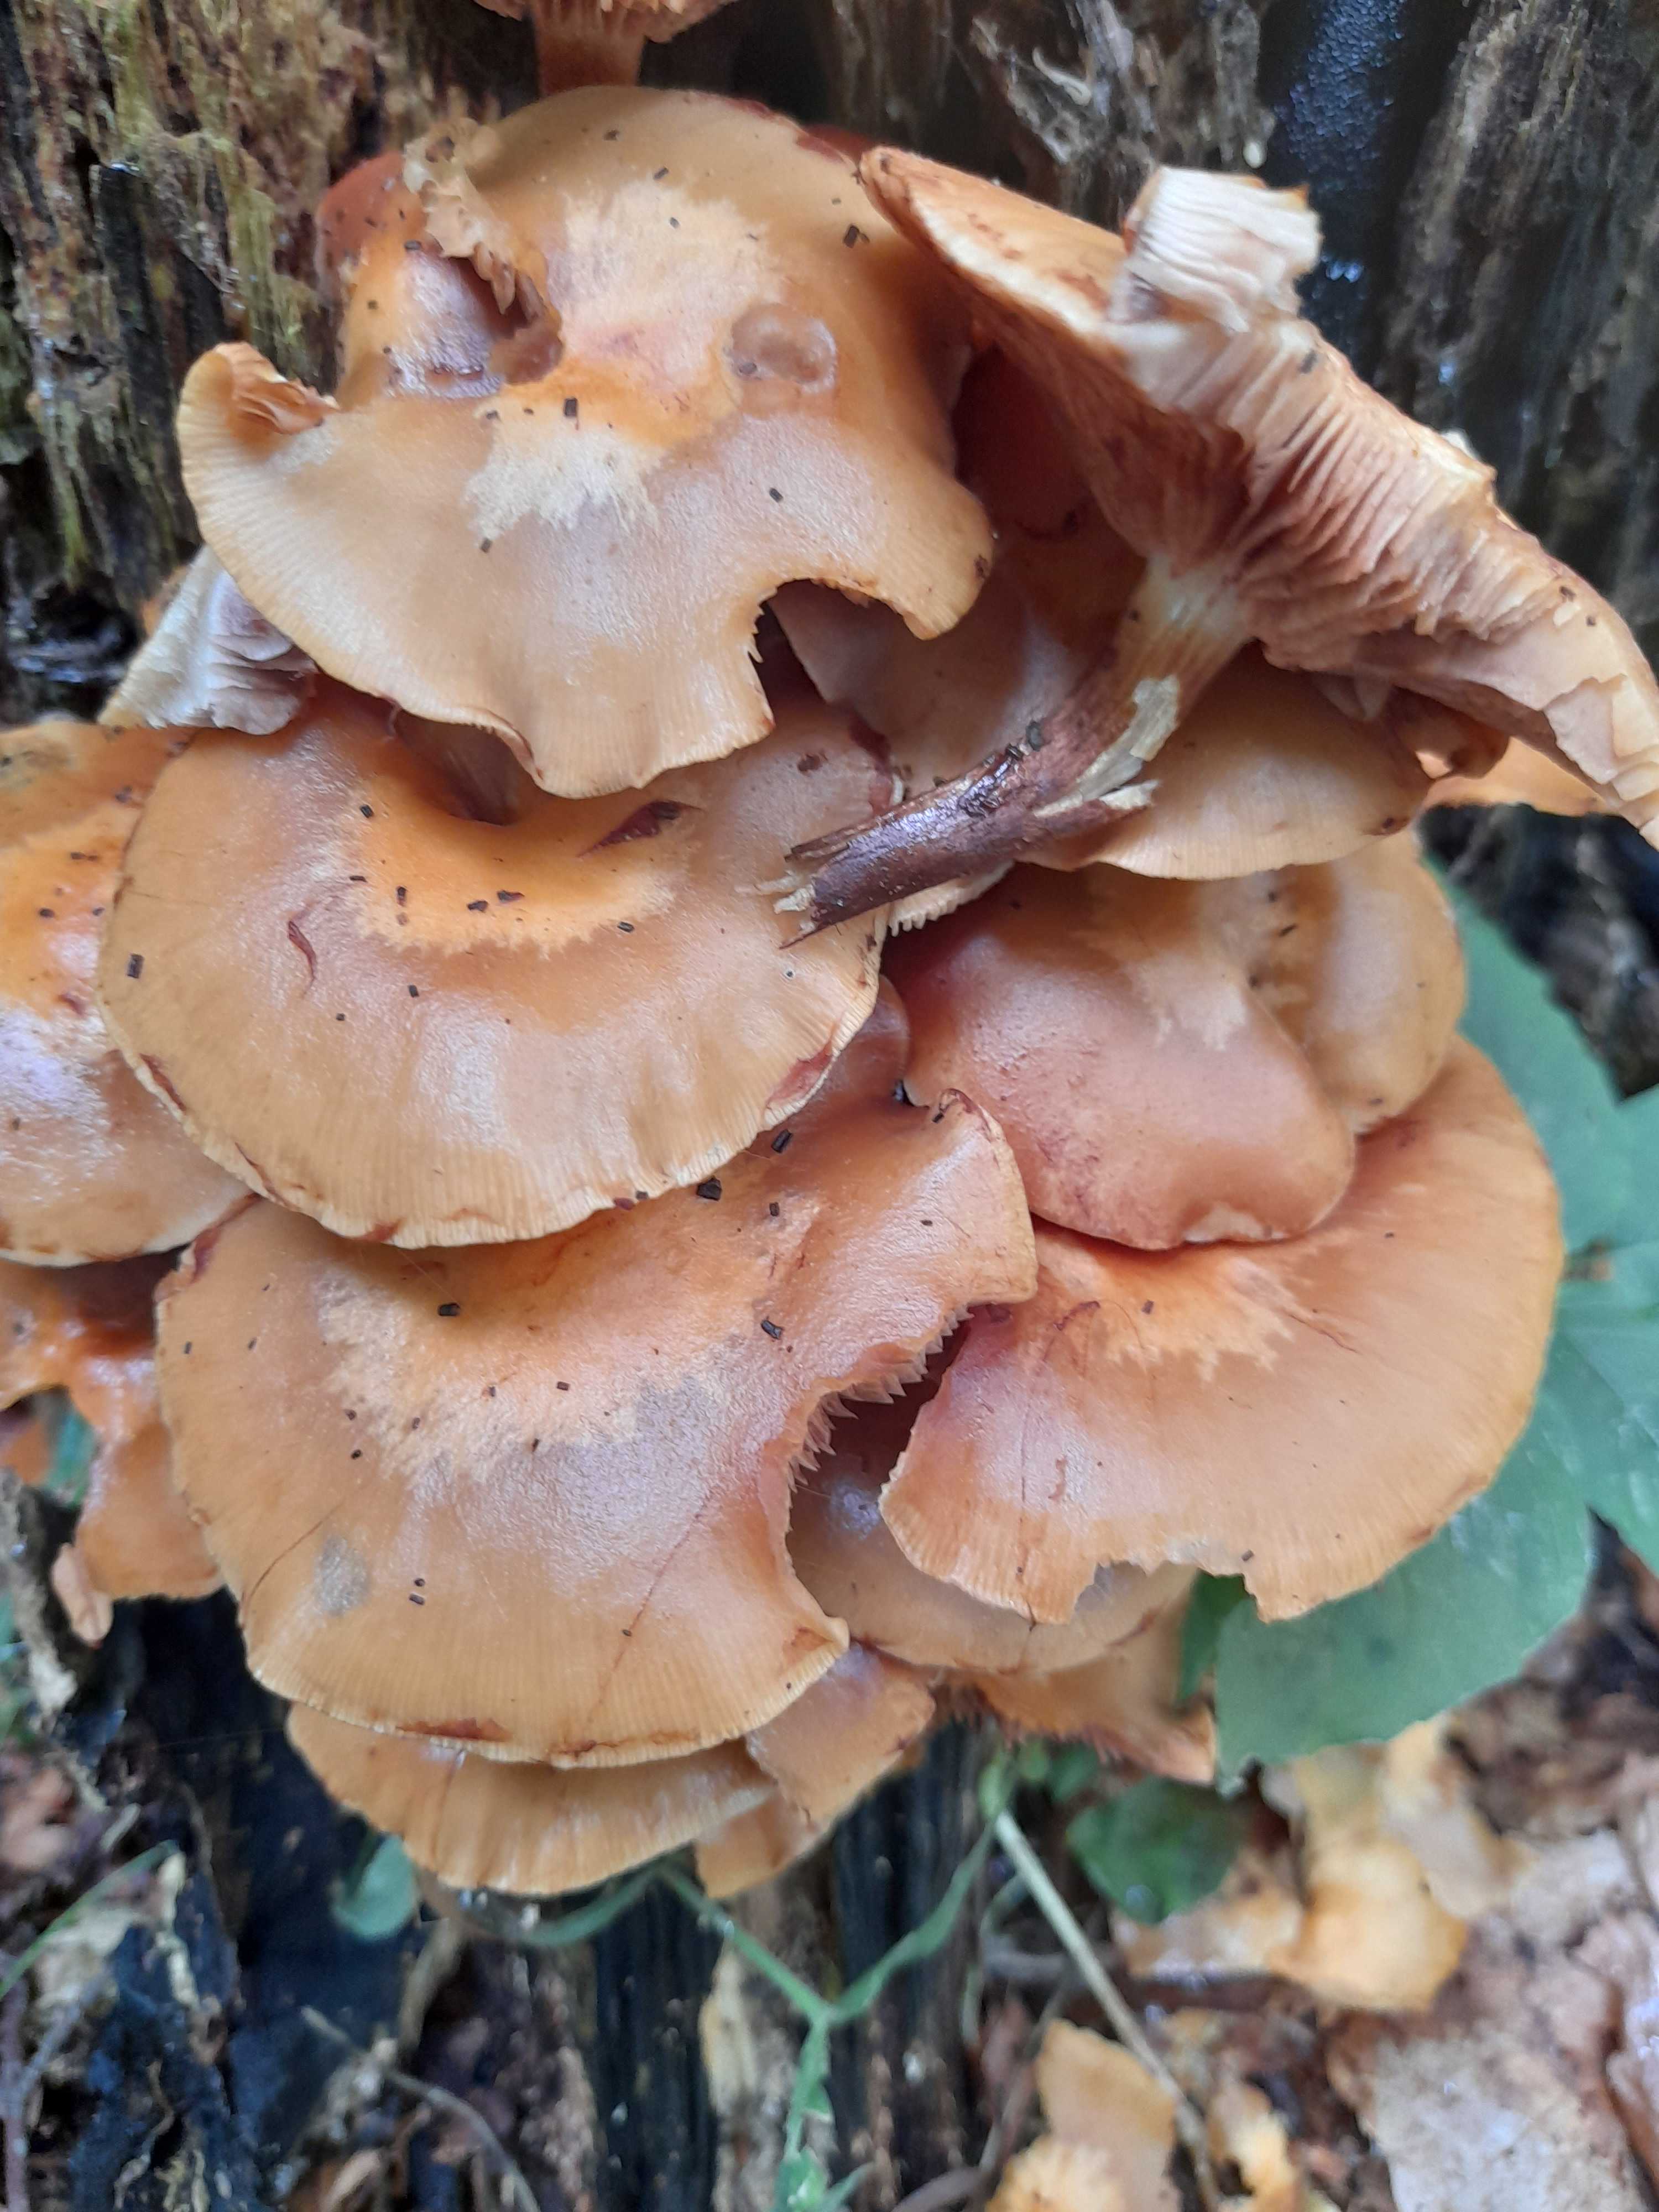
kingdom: Fungi
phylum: Basidiomycota
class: Agaricomycetes
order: Agaricales
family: Strophariaceae
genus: Kuehneromyces
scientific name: Kuehneromyces mutabilis
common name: foranderlig skælhat
